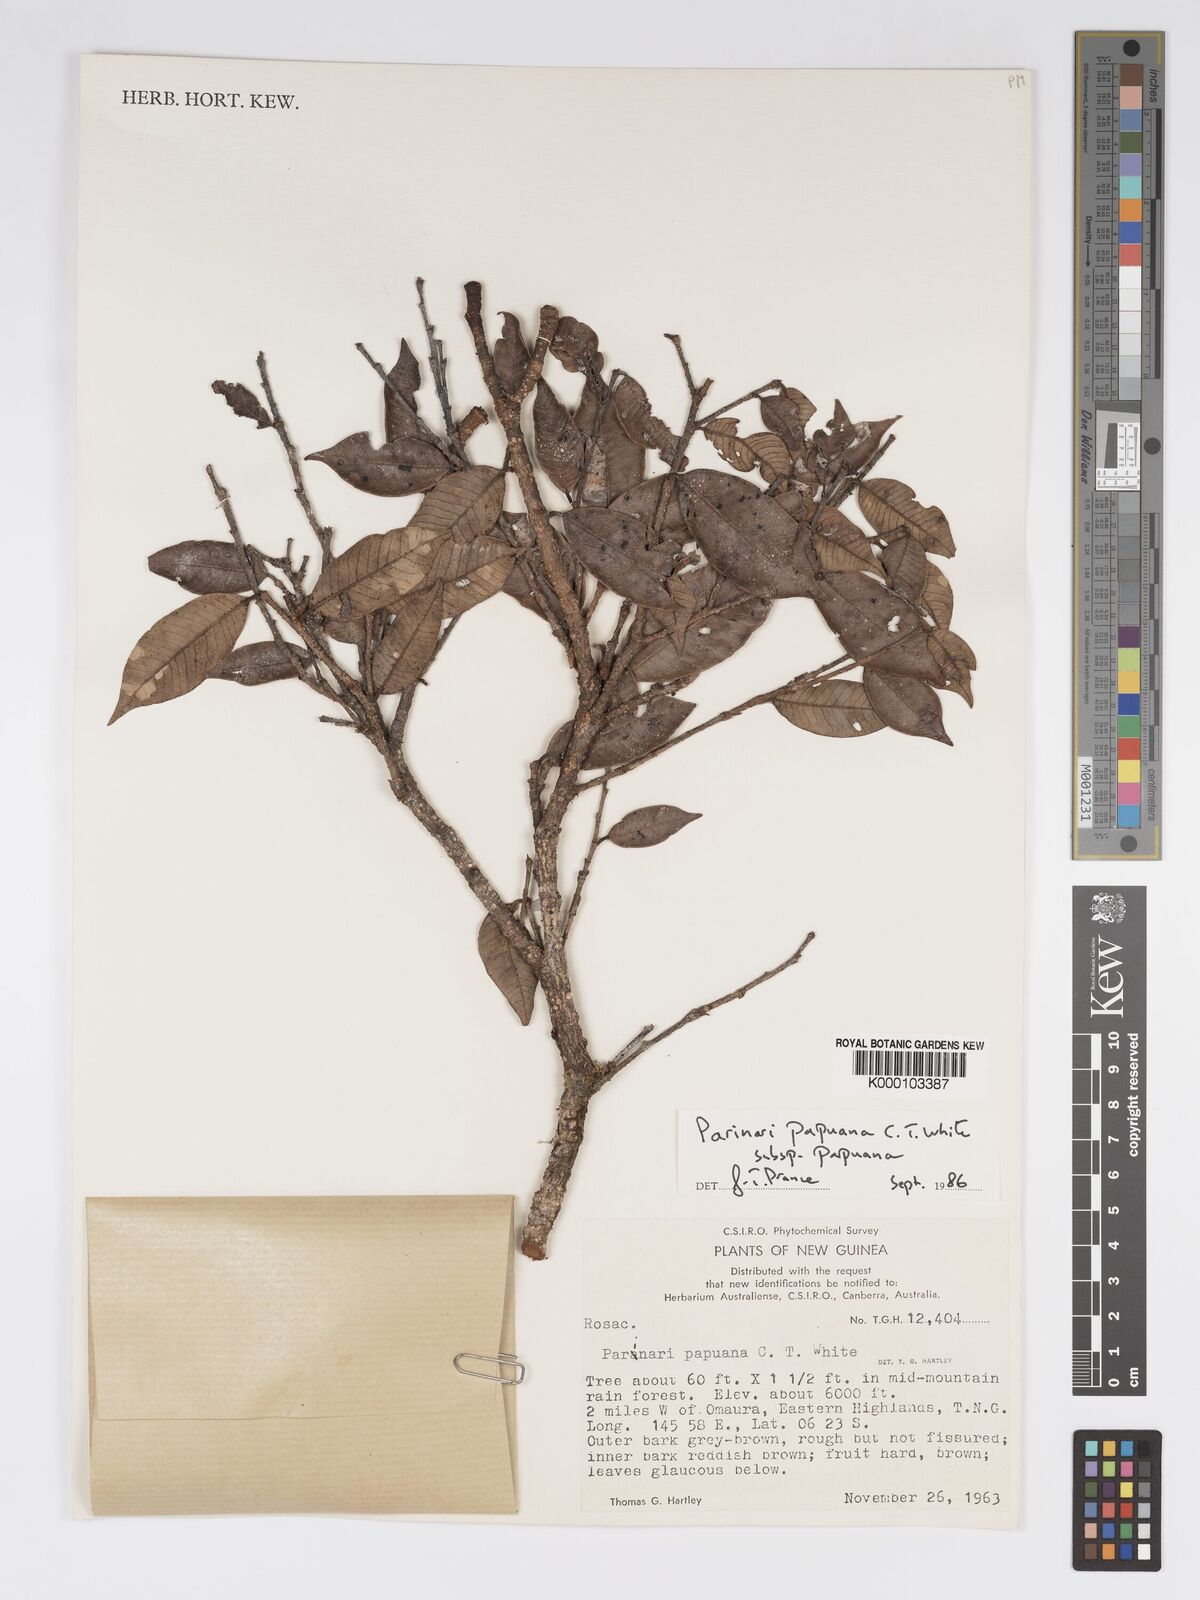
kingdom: Plantae
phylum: Tracheophyta
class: Magnoliopsida
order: Malpighiales
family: Chrysobalanaceae
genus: Parinari
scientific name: Parinari papuana
